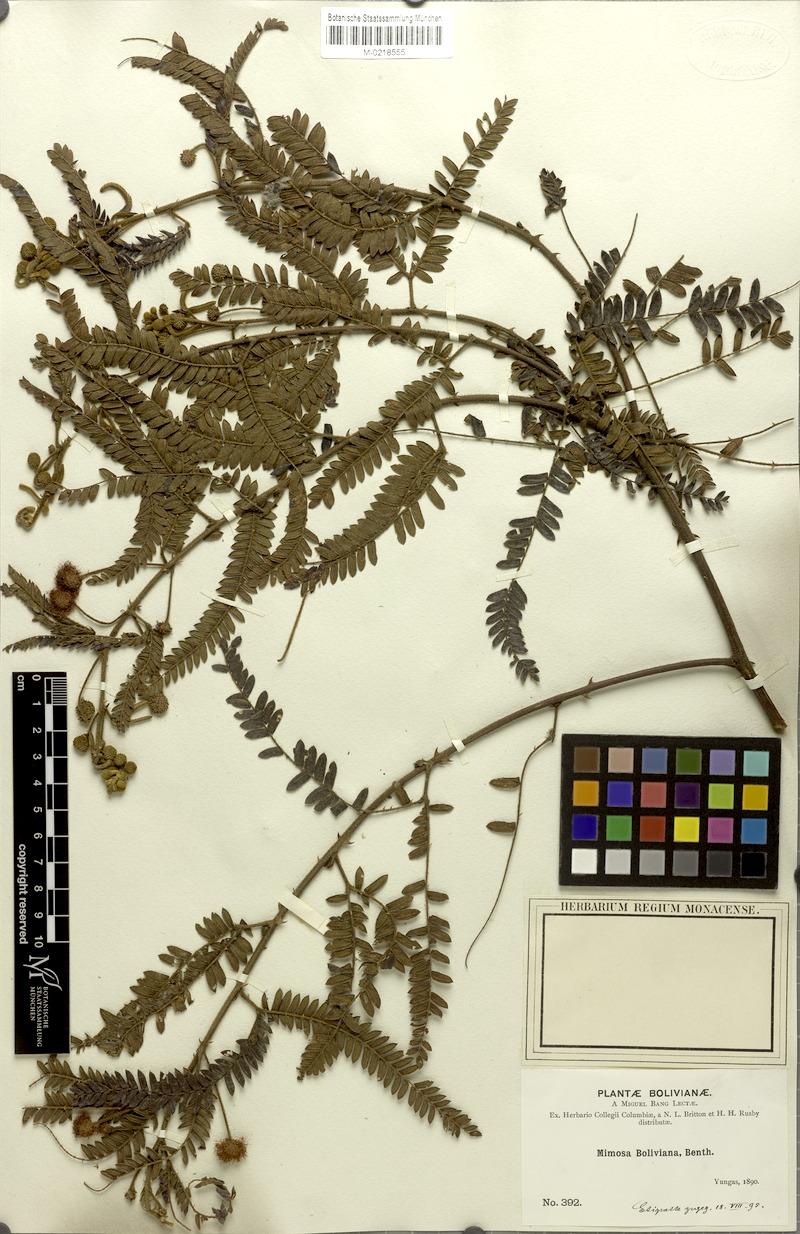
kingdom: Plantae
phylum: Tracheophyta
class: Magnoliopsida
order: Fabales
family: Fabaceae
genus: Mimosa
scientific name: Mimosa boliviana
